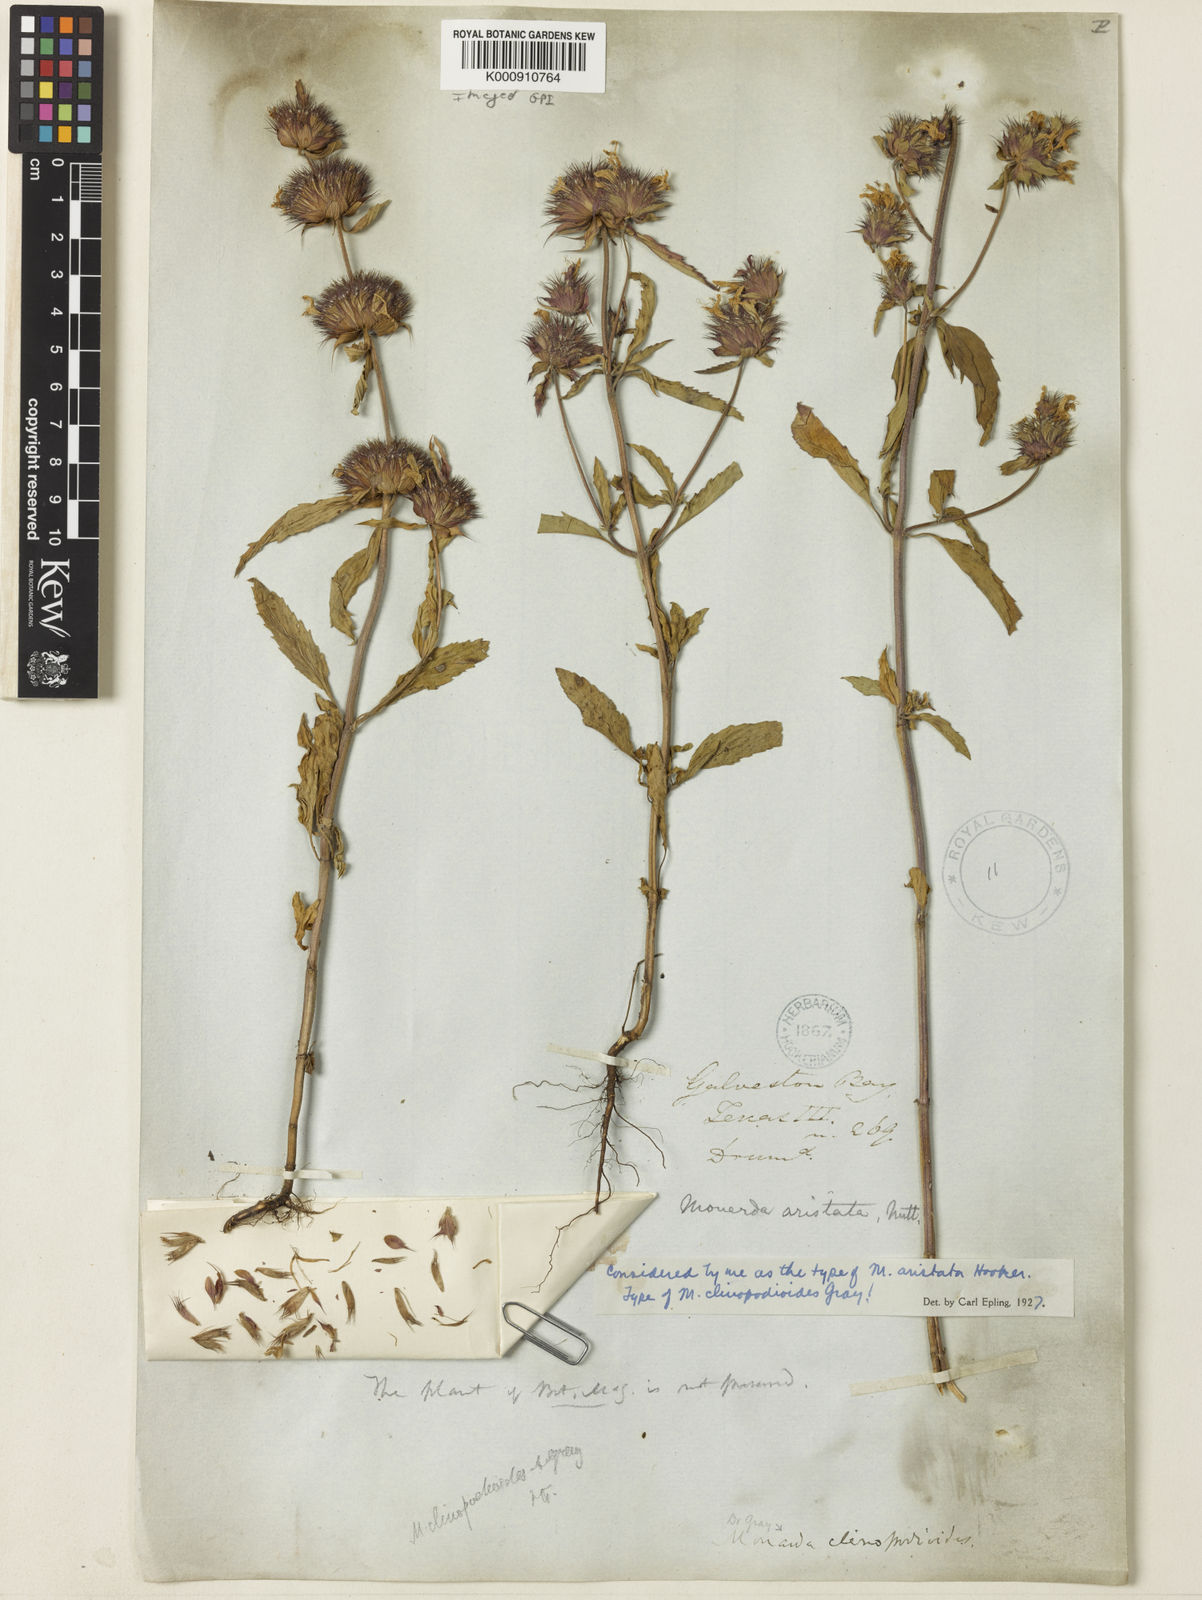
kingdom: Plantae
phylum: Tracheophyta
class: Magnoliopsida
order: Lamiales
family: Lamiaceae
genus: Monarda
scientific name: Monarda pectinata
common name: Plains beebalm
